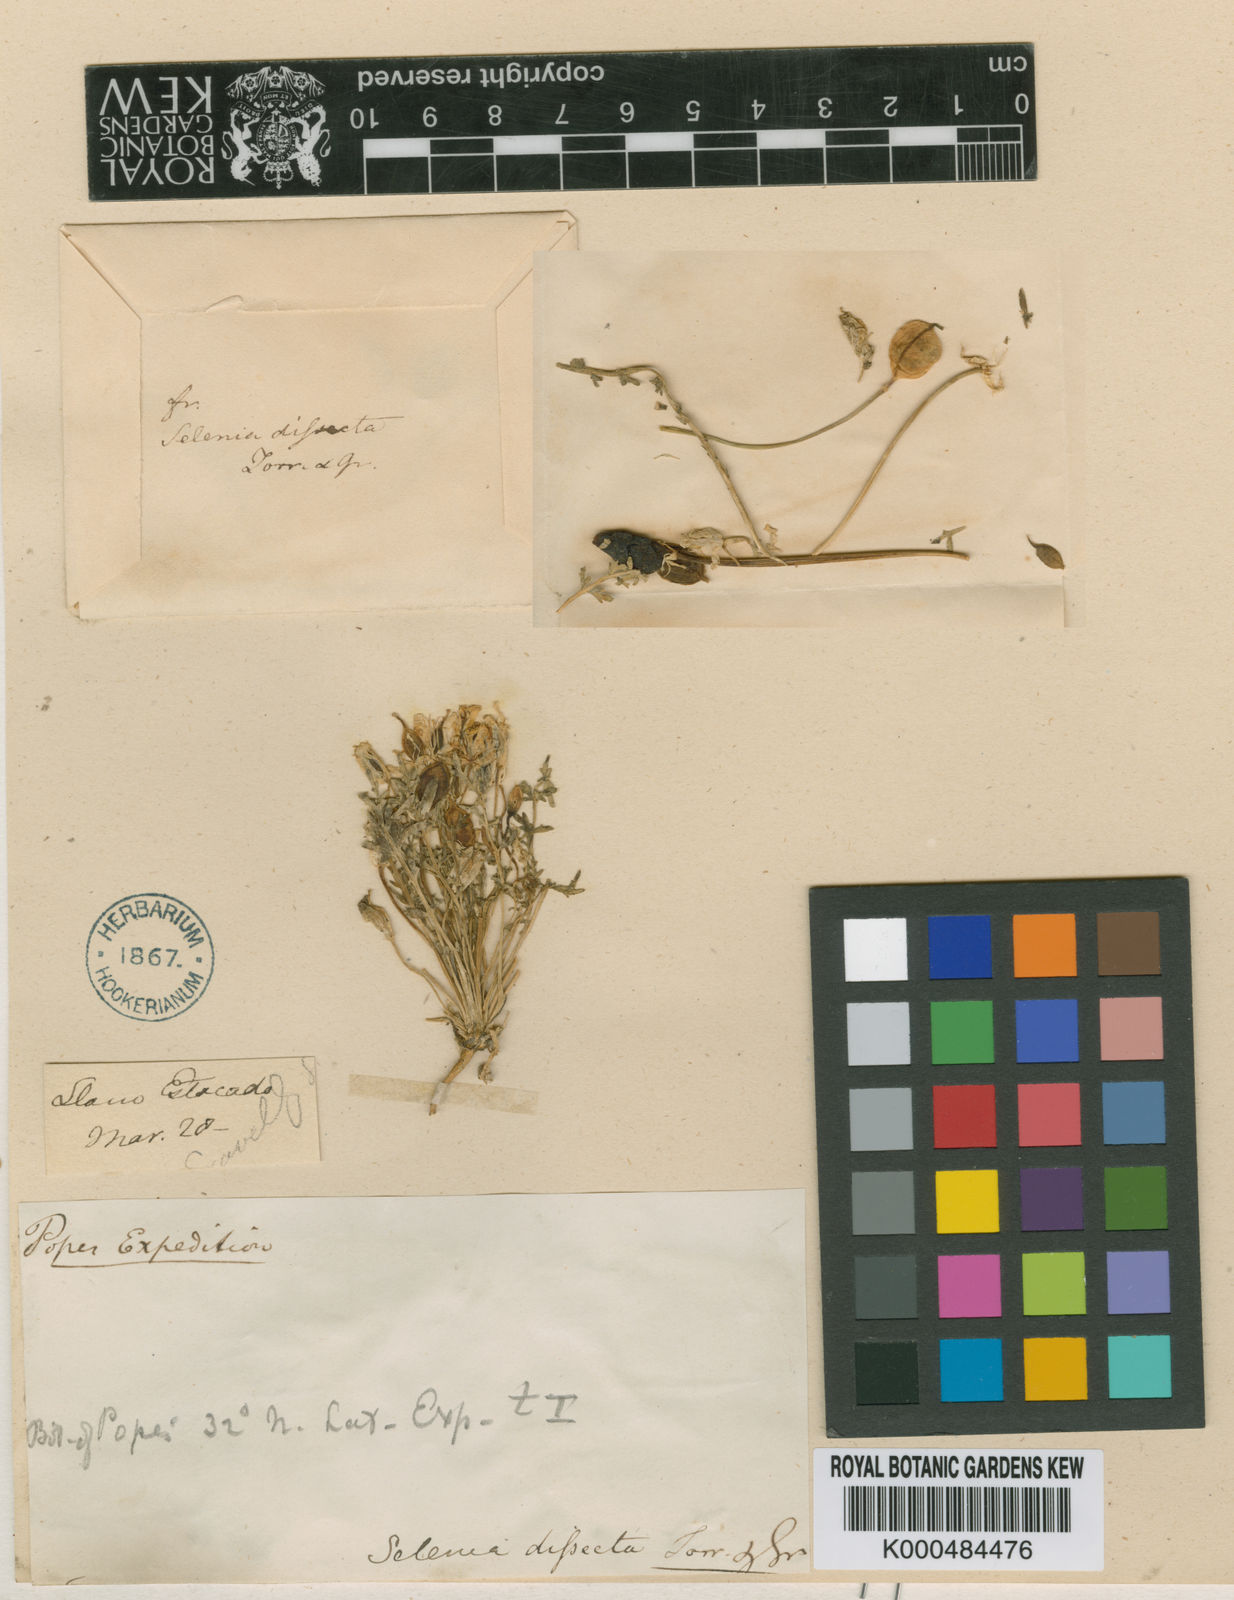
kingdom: Plantae
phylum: Tracheophyta
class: Magnoliopsida
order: Brassicales
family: Brassicaceae
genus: Selenia
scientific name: Selenia
